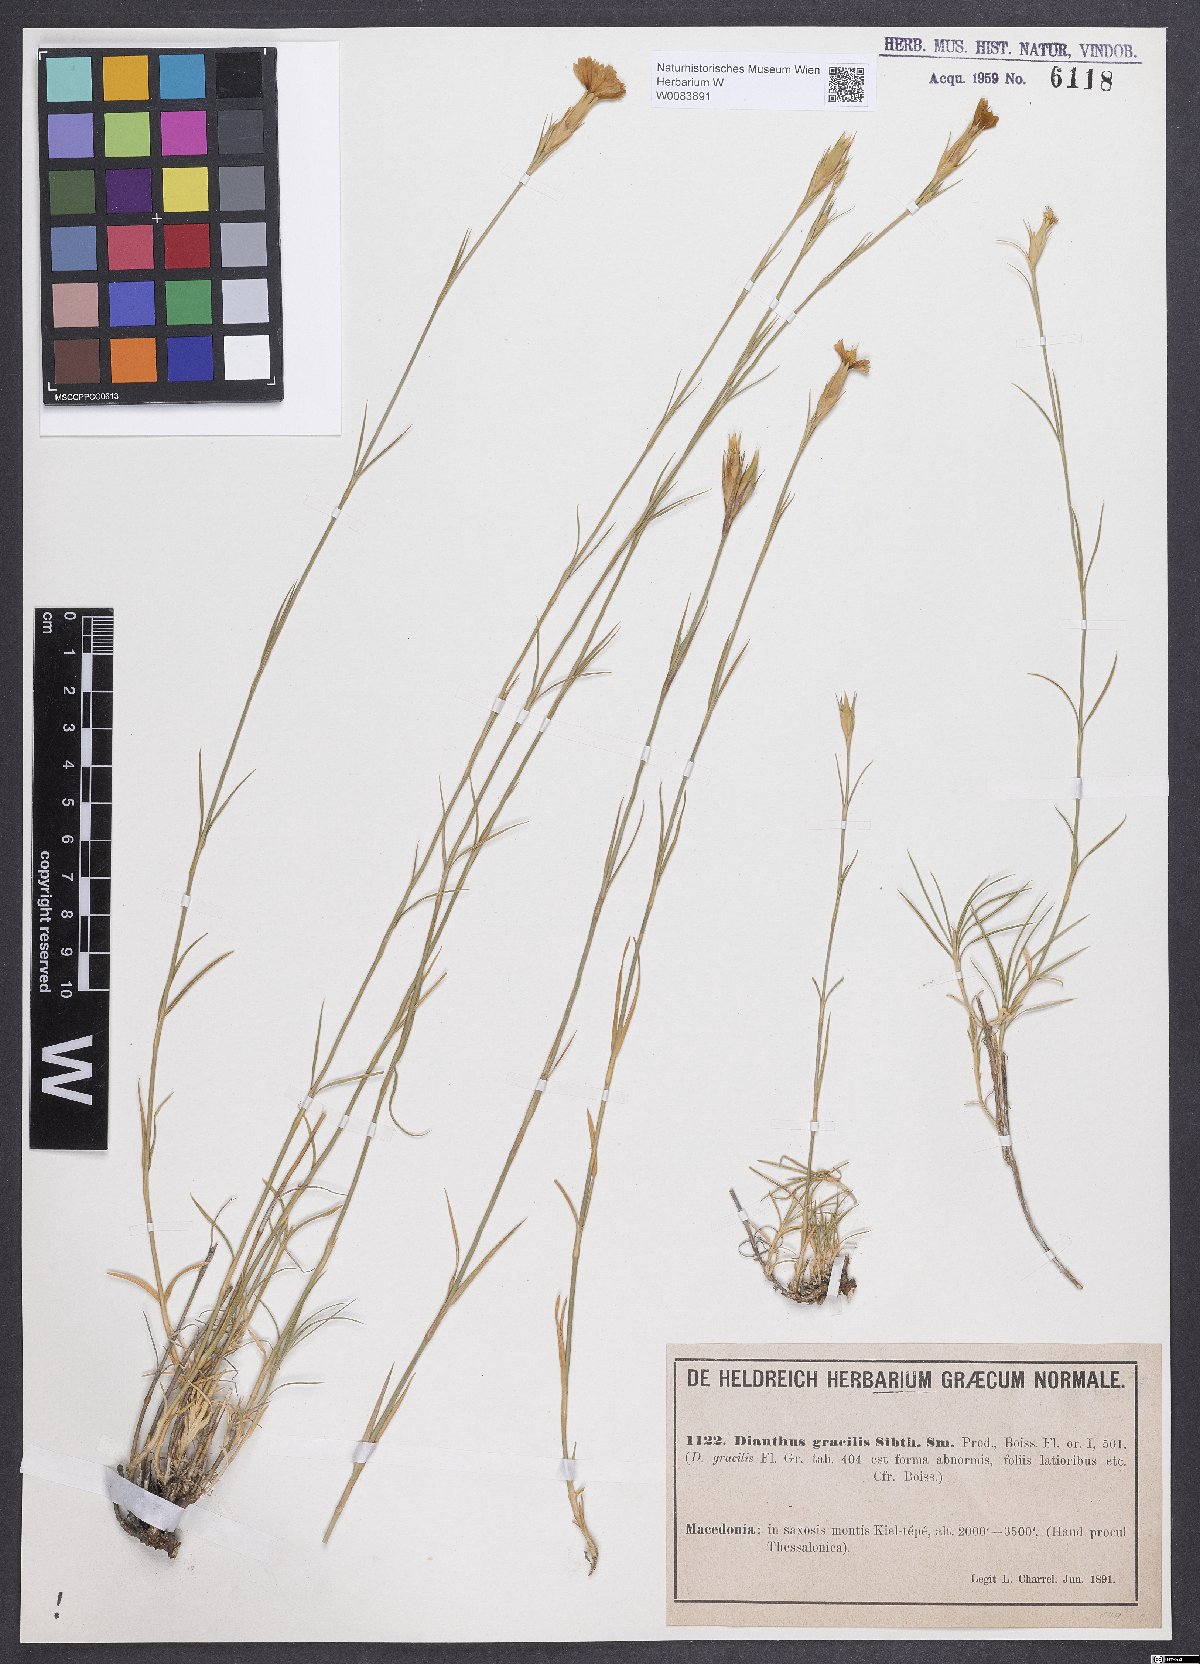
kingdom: Plantae
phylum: Tracheophyta
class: Magnoliopsida
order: Caryophyllales
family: Caryophyllaceae
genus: Dianthus
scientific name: Dianthus gracilis
